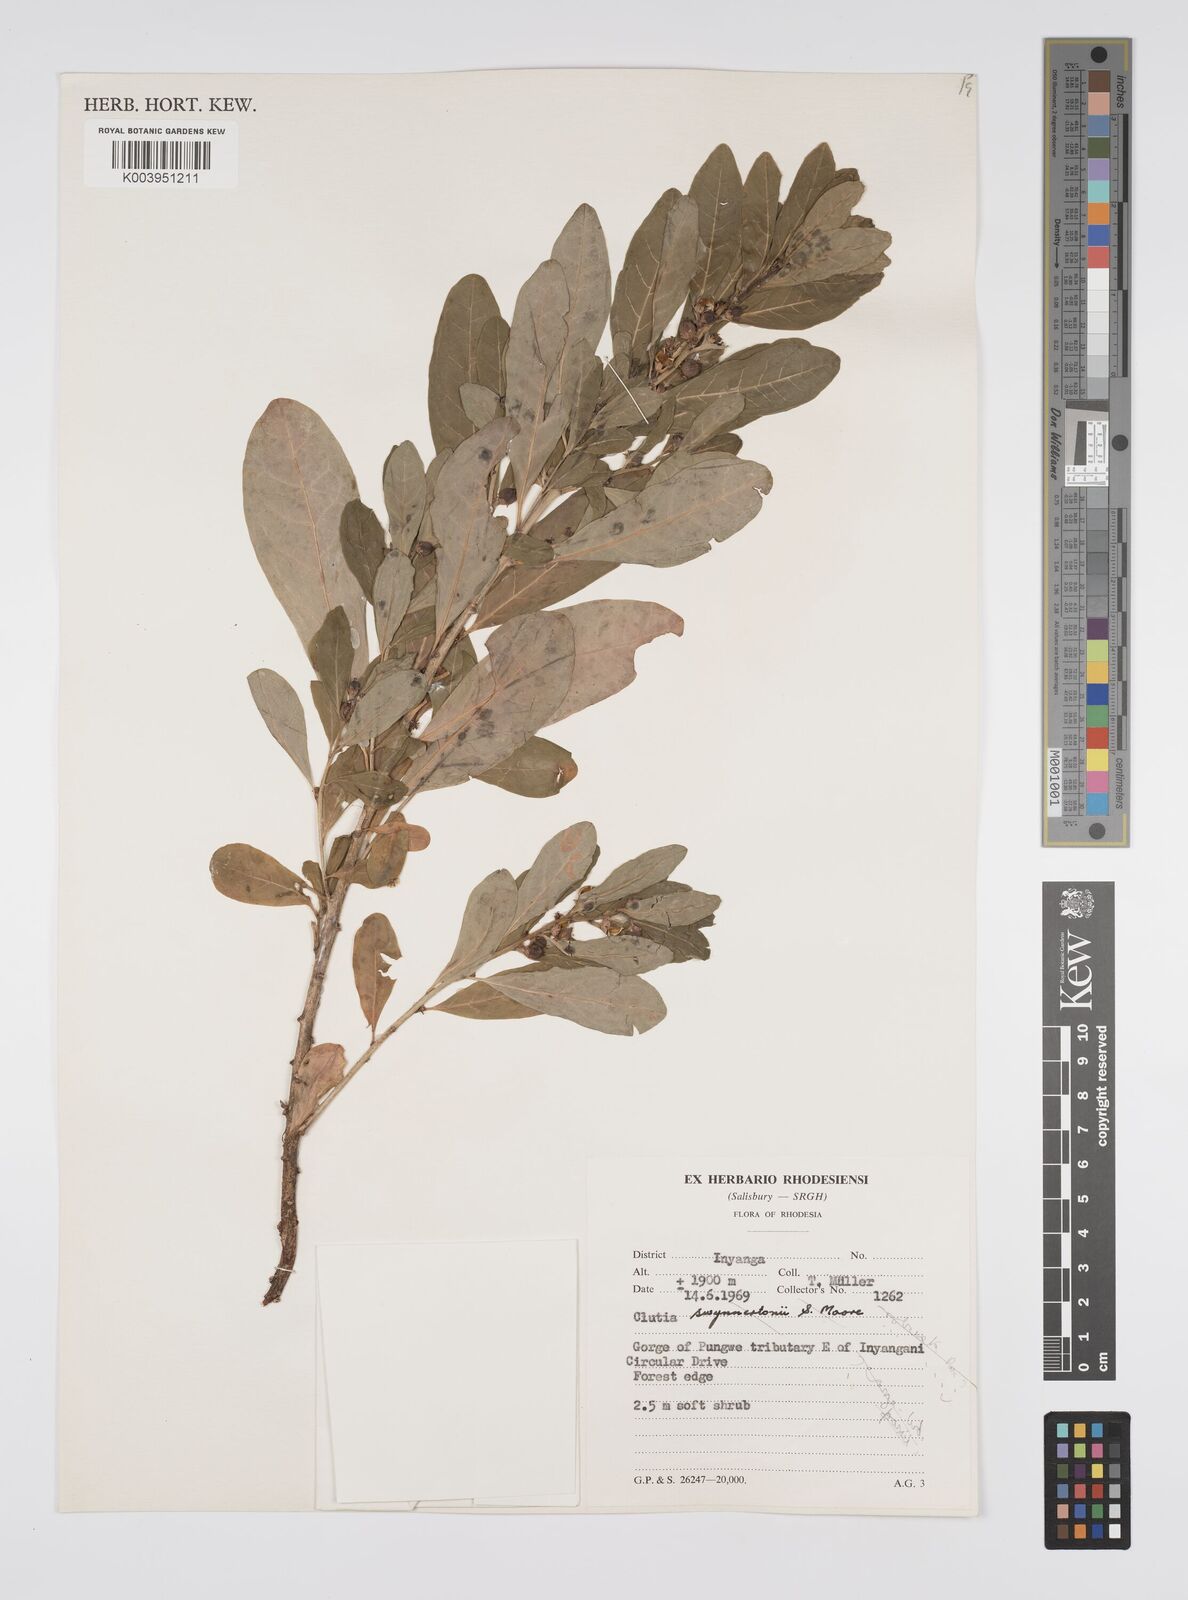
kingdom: Plantae
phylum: Tracheophyta
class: Magnoliopsida
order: Malpighiales
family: Peraceae
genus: Clutia
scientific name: Clutia kilimandscharica
